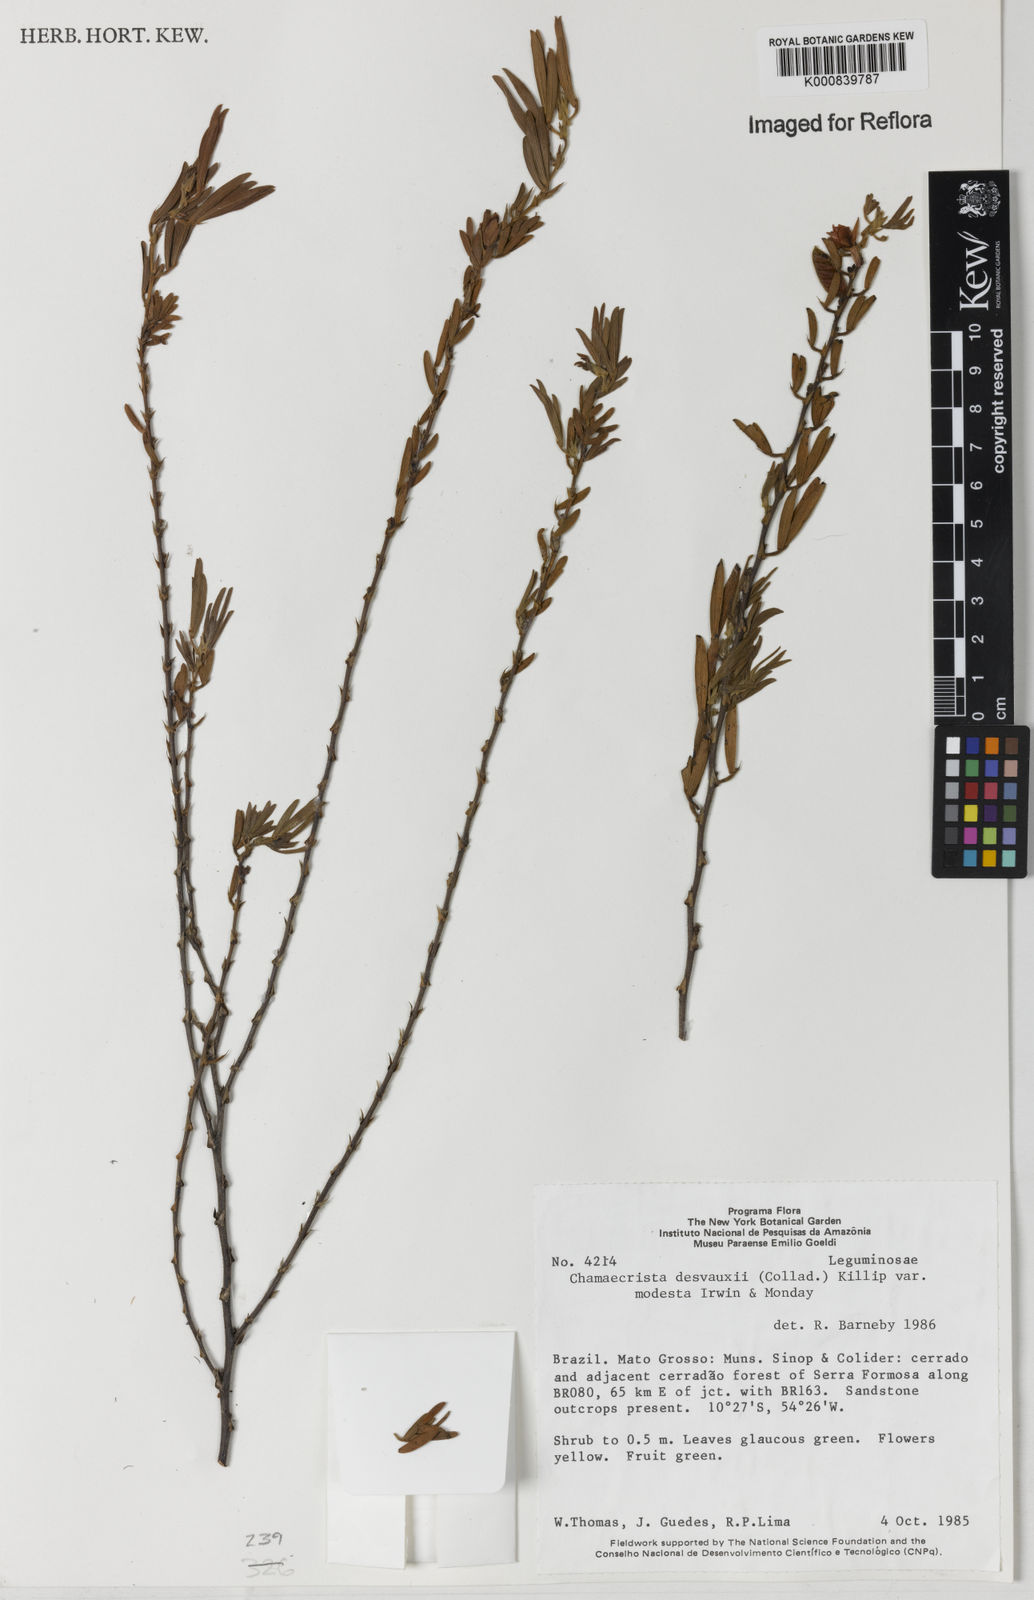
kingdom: Plantae
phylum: Tracheophyta
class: Magnoliopsida
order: Fabales
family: Fabaceae
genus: Chamaecrista
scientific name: Chamaecrista desvauxii
